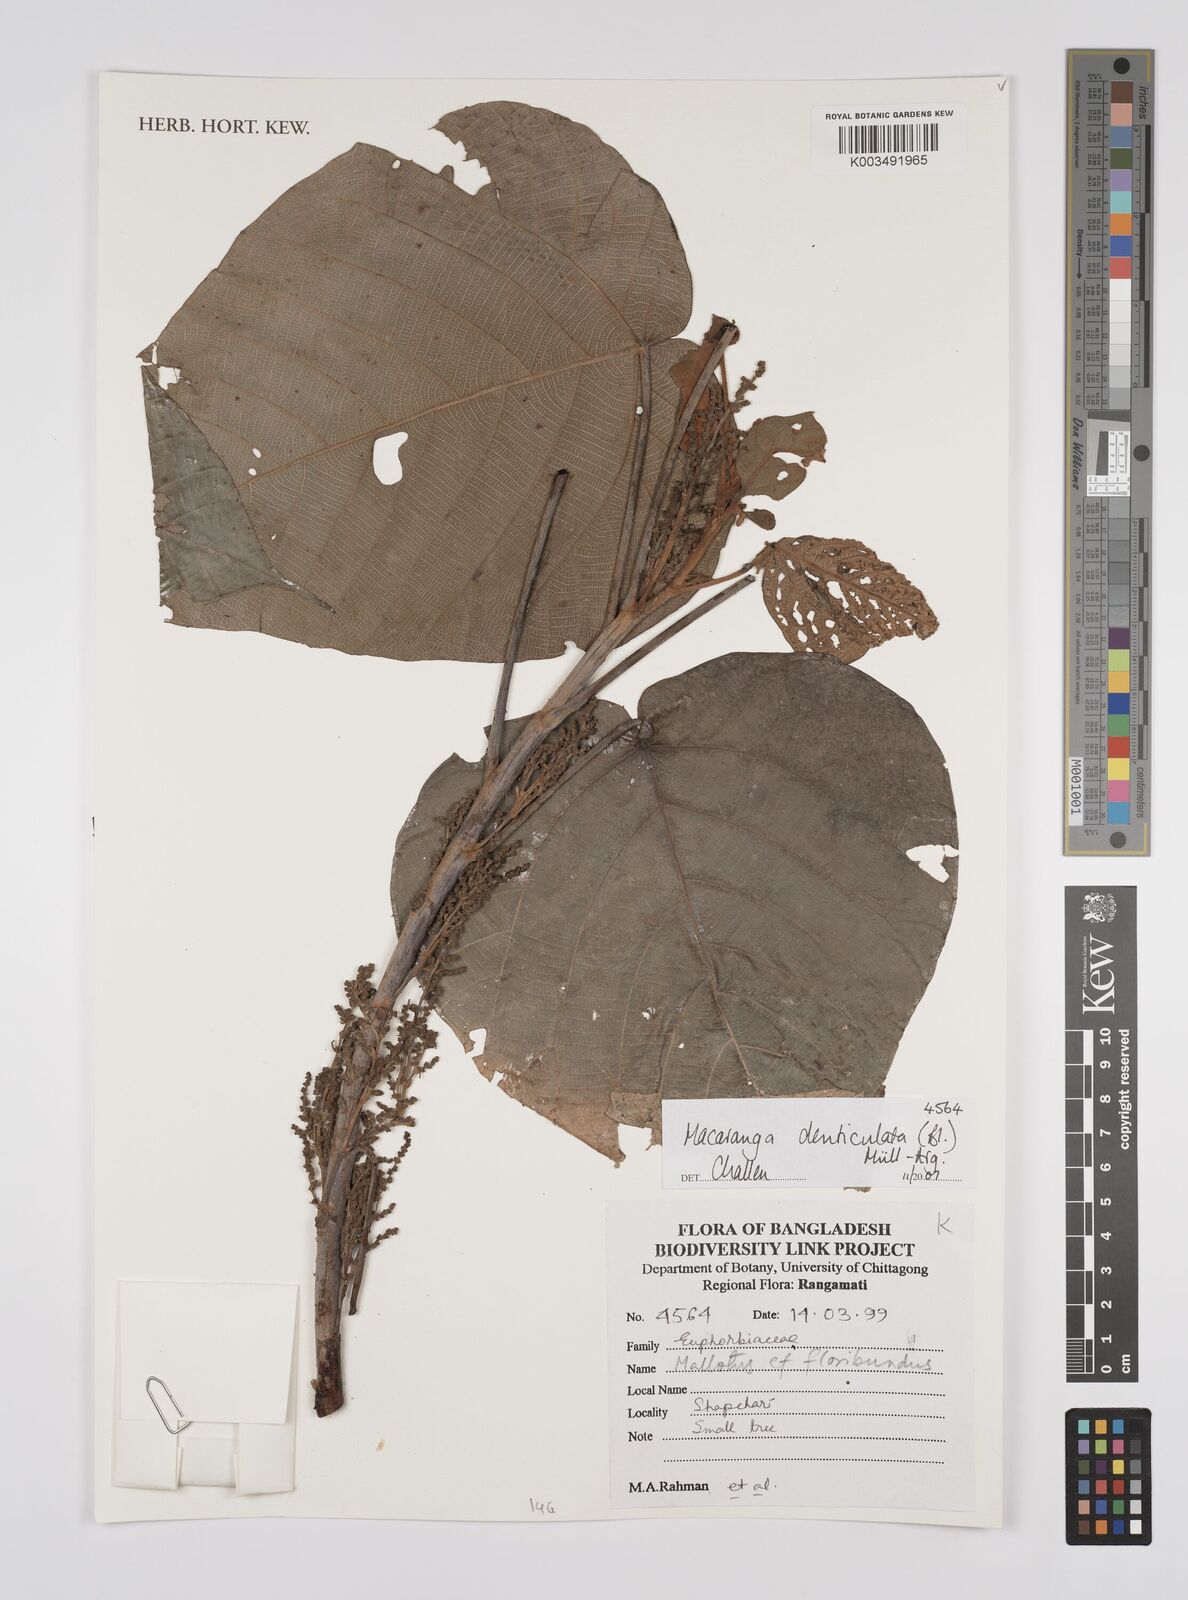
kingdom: Plantae
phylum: Tracheophyta
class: Magnoliopsida
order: Malpighiales
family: Euphorbiaceae
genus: Macaranga
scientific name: Macaranga denticulata
